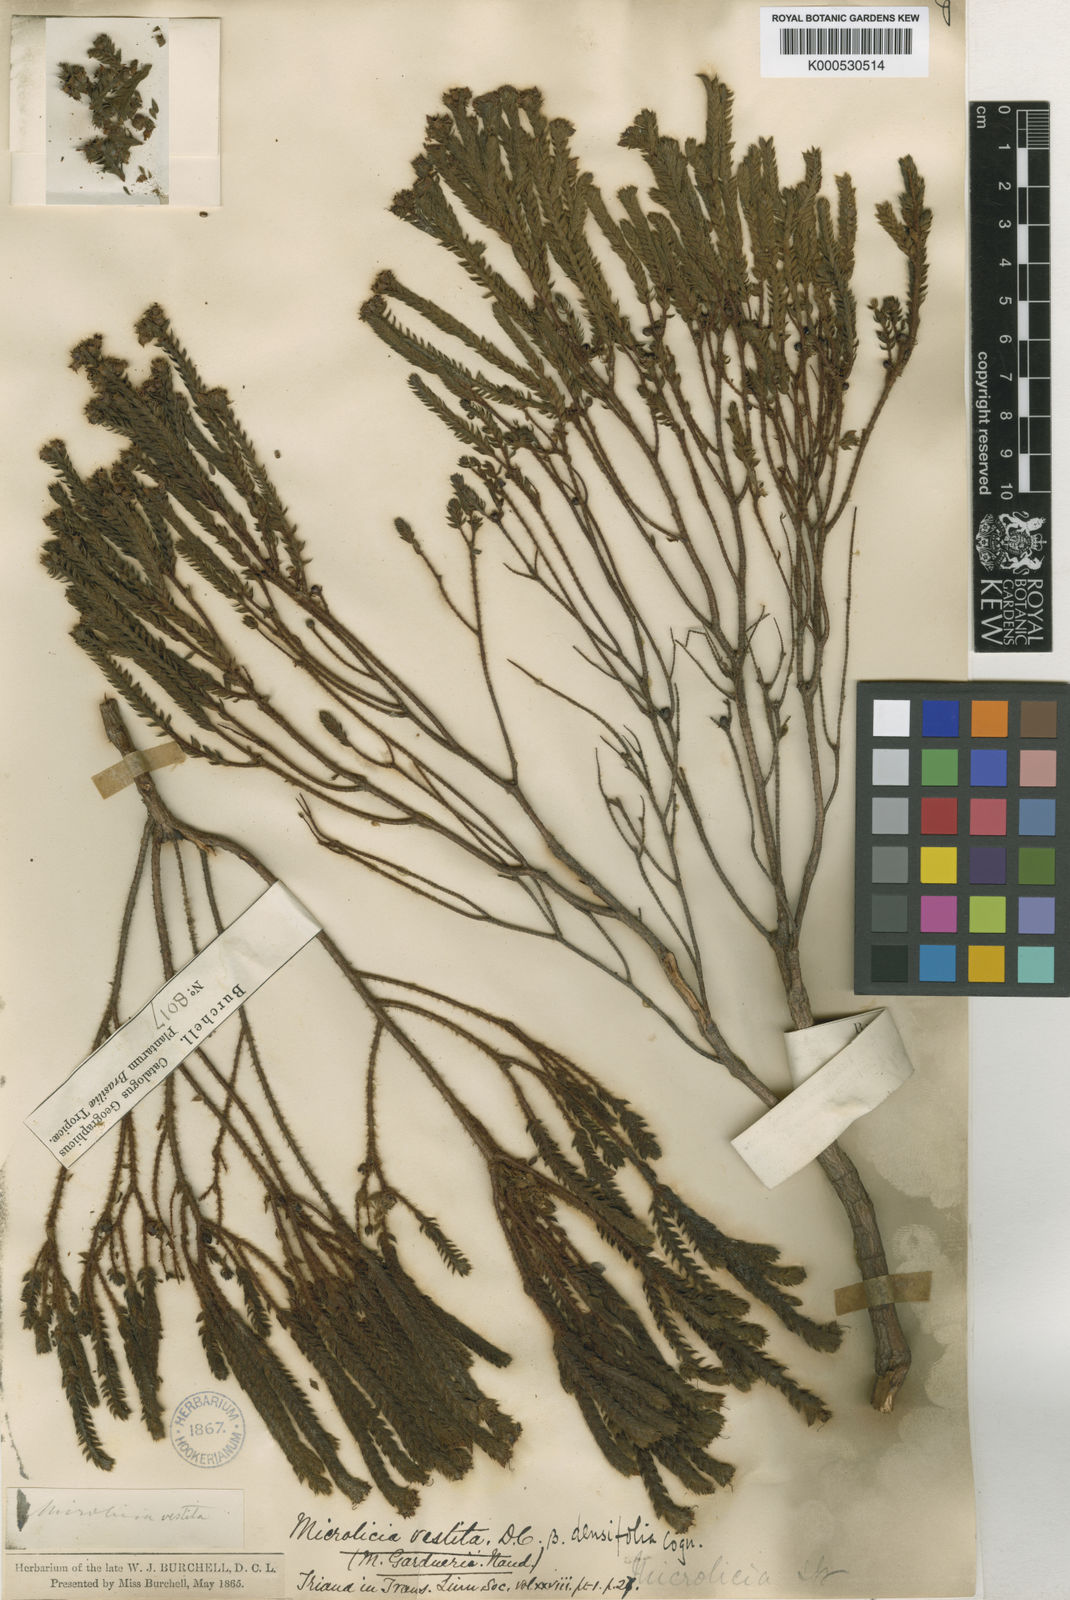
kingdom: Plantae
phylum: Tracheophyta
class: Magnoliopsida
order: Myrtales
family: Melastomataceae
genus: Microlicia
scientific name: Microlicia vestita
